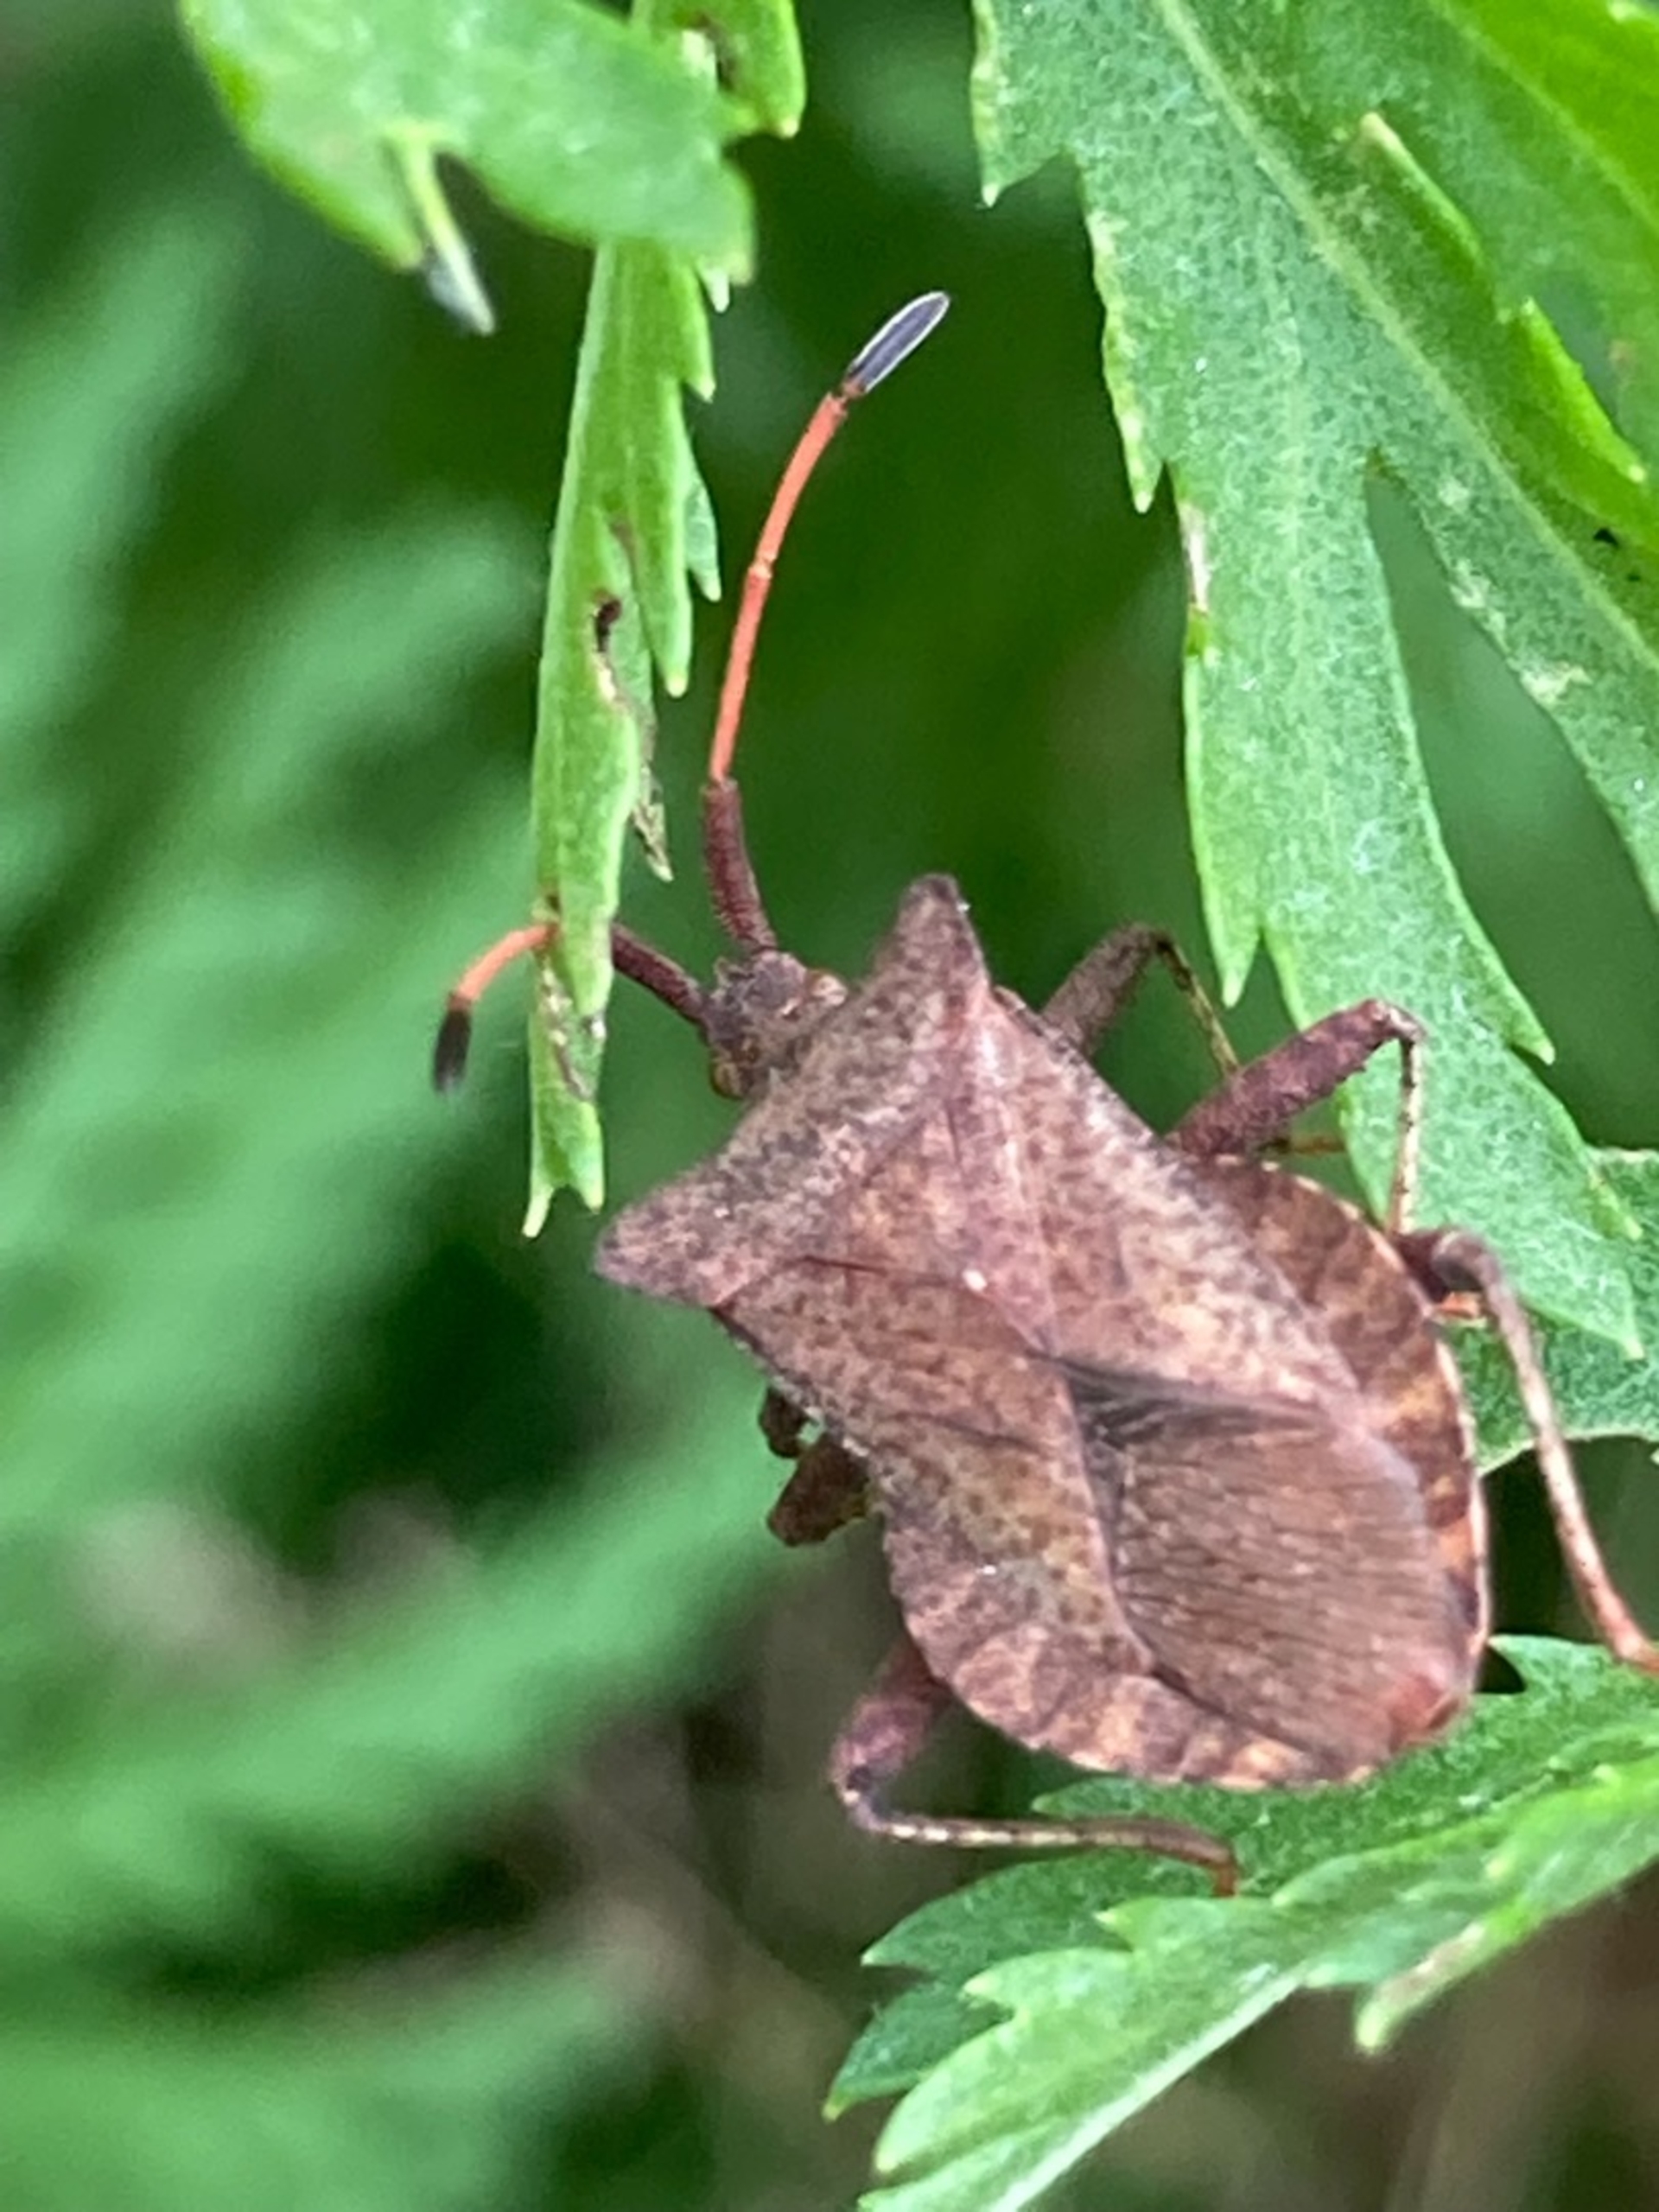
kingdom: Animalia
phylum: Arthropoda
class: Insecta
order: Hemiptera
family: Coreidae
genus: Coreus
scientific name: Coreus marginatus
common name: Skræppetæge
